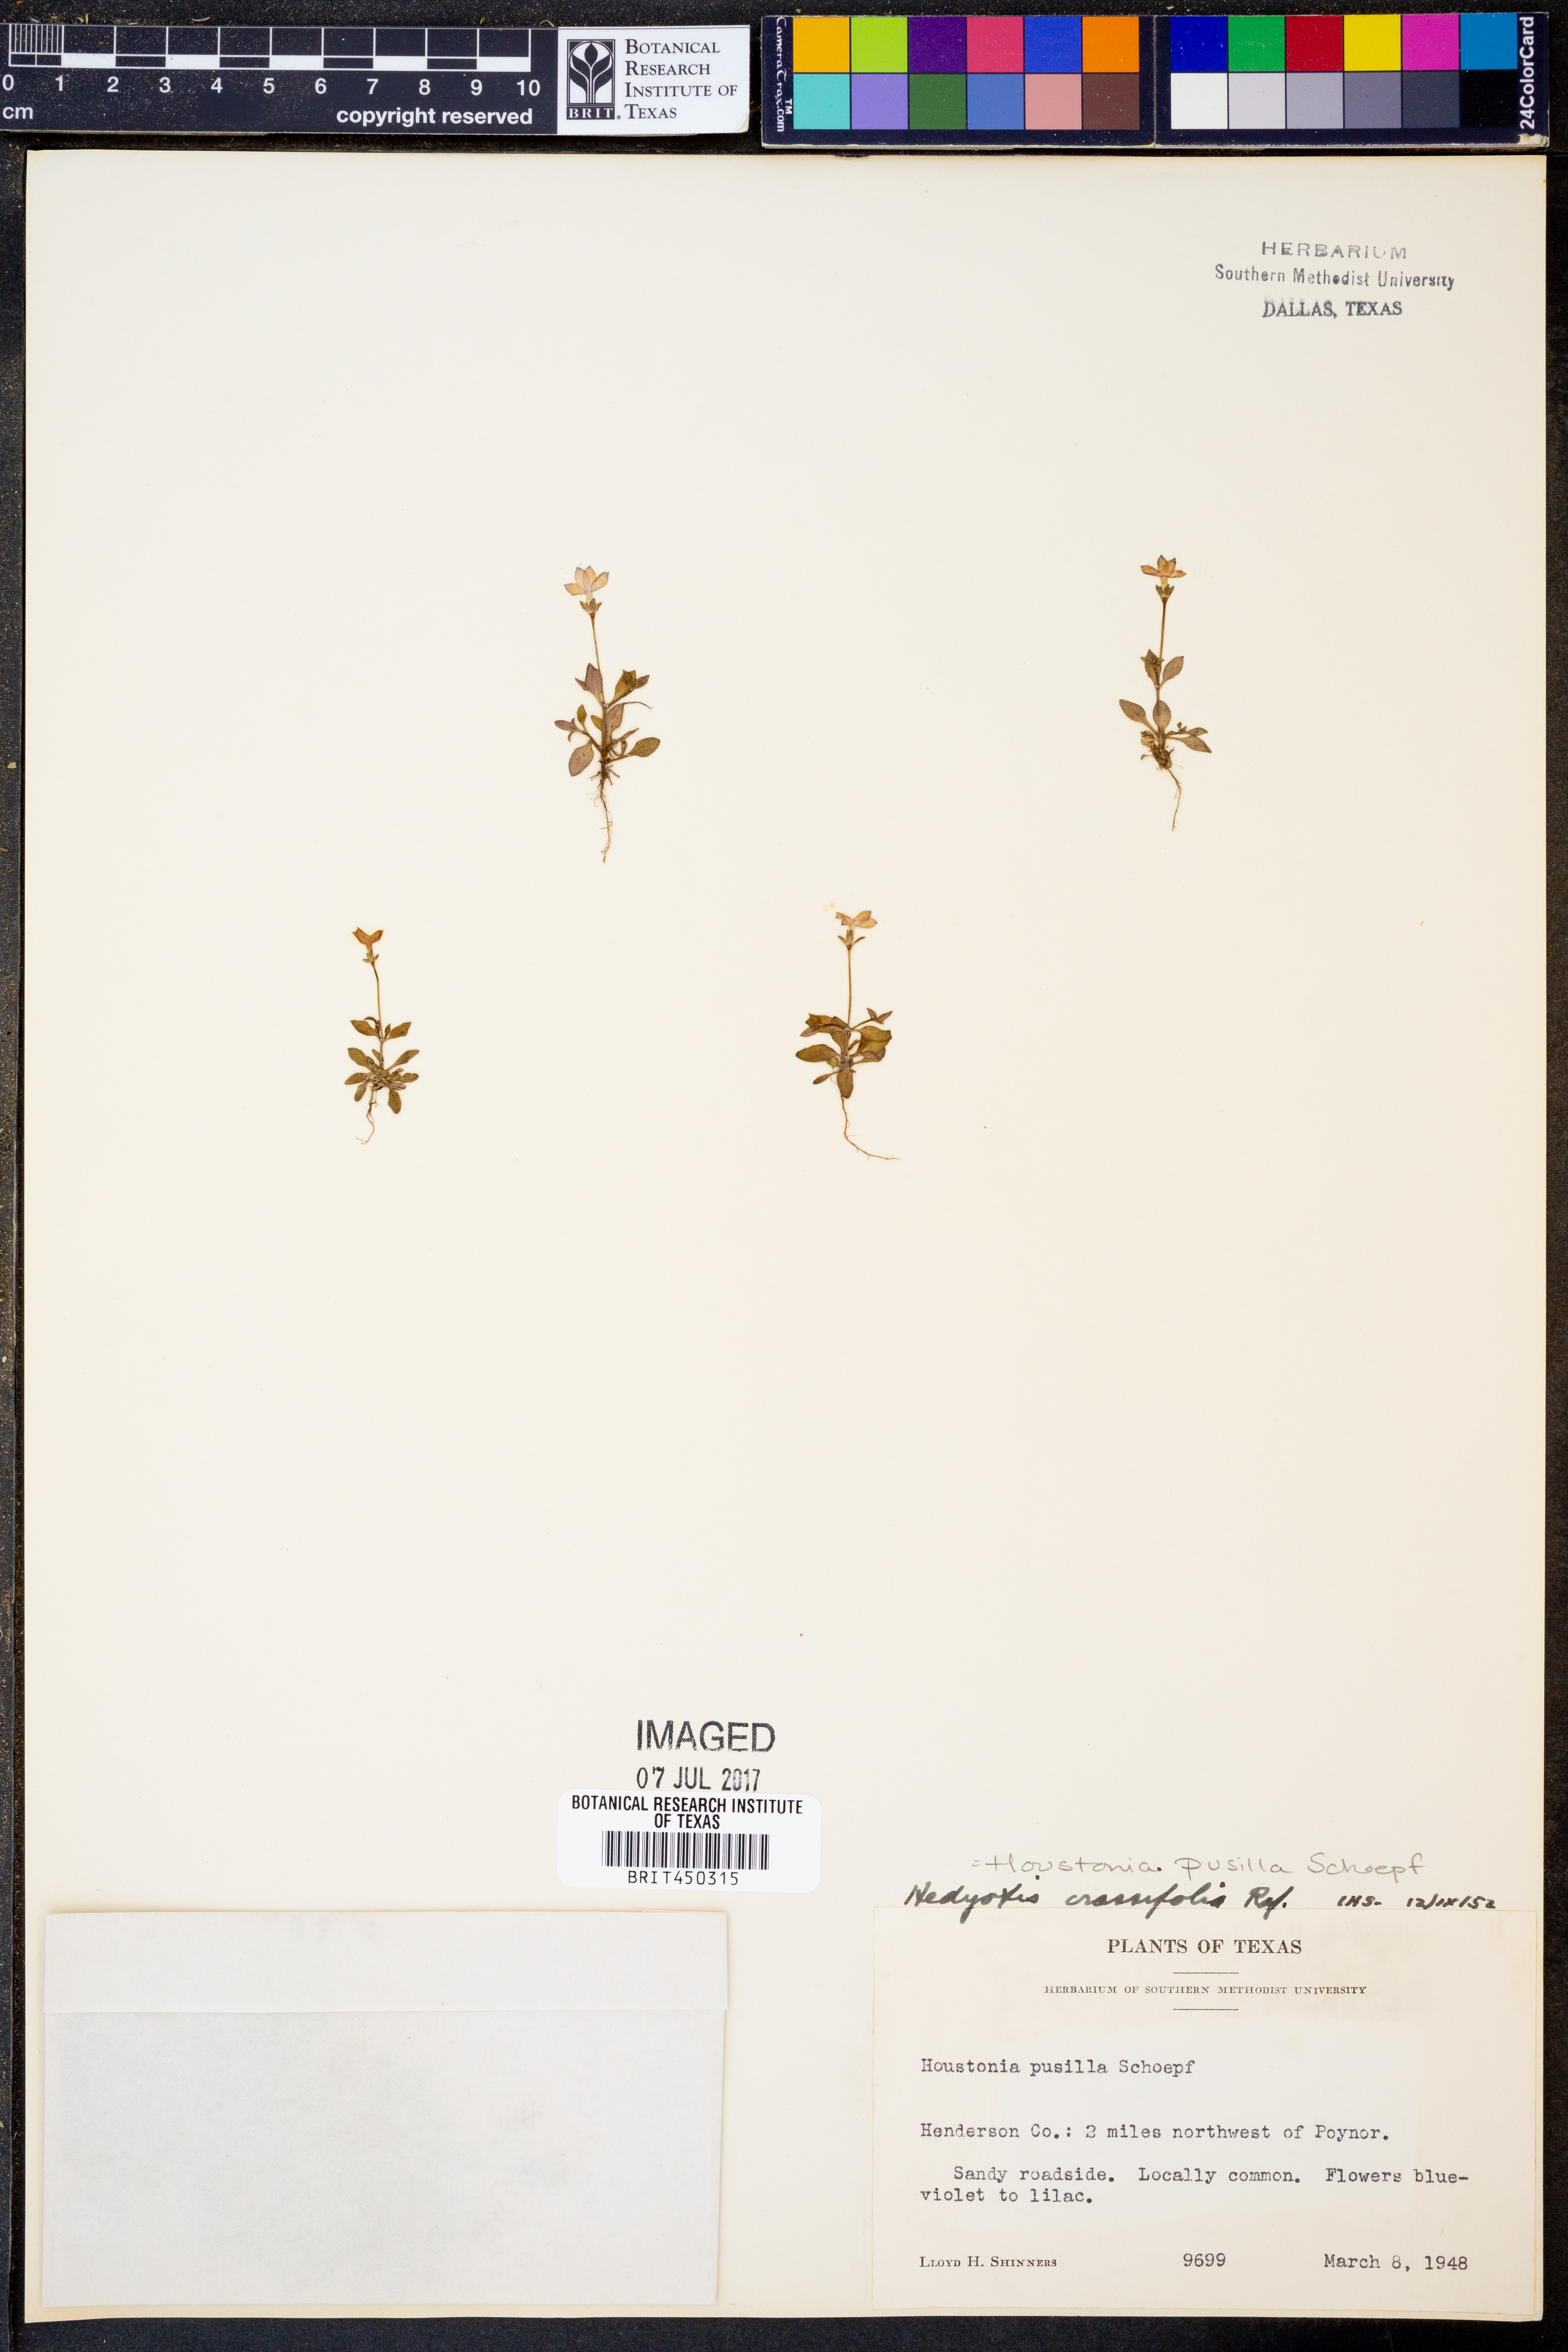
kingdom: Plantae
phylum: Tracheophyta
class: Magnoliopsida
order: Gentianales
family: Rubiaceae
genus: Houstonia
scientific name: Houstonia pusilla
